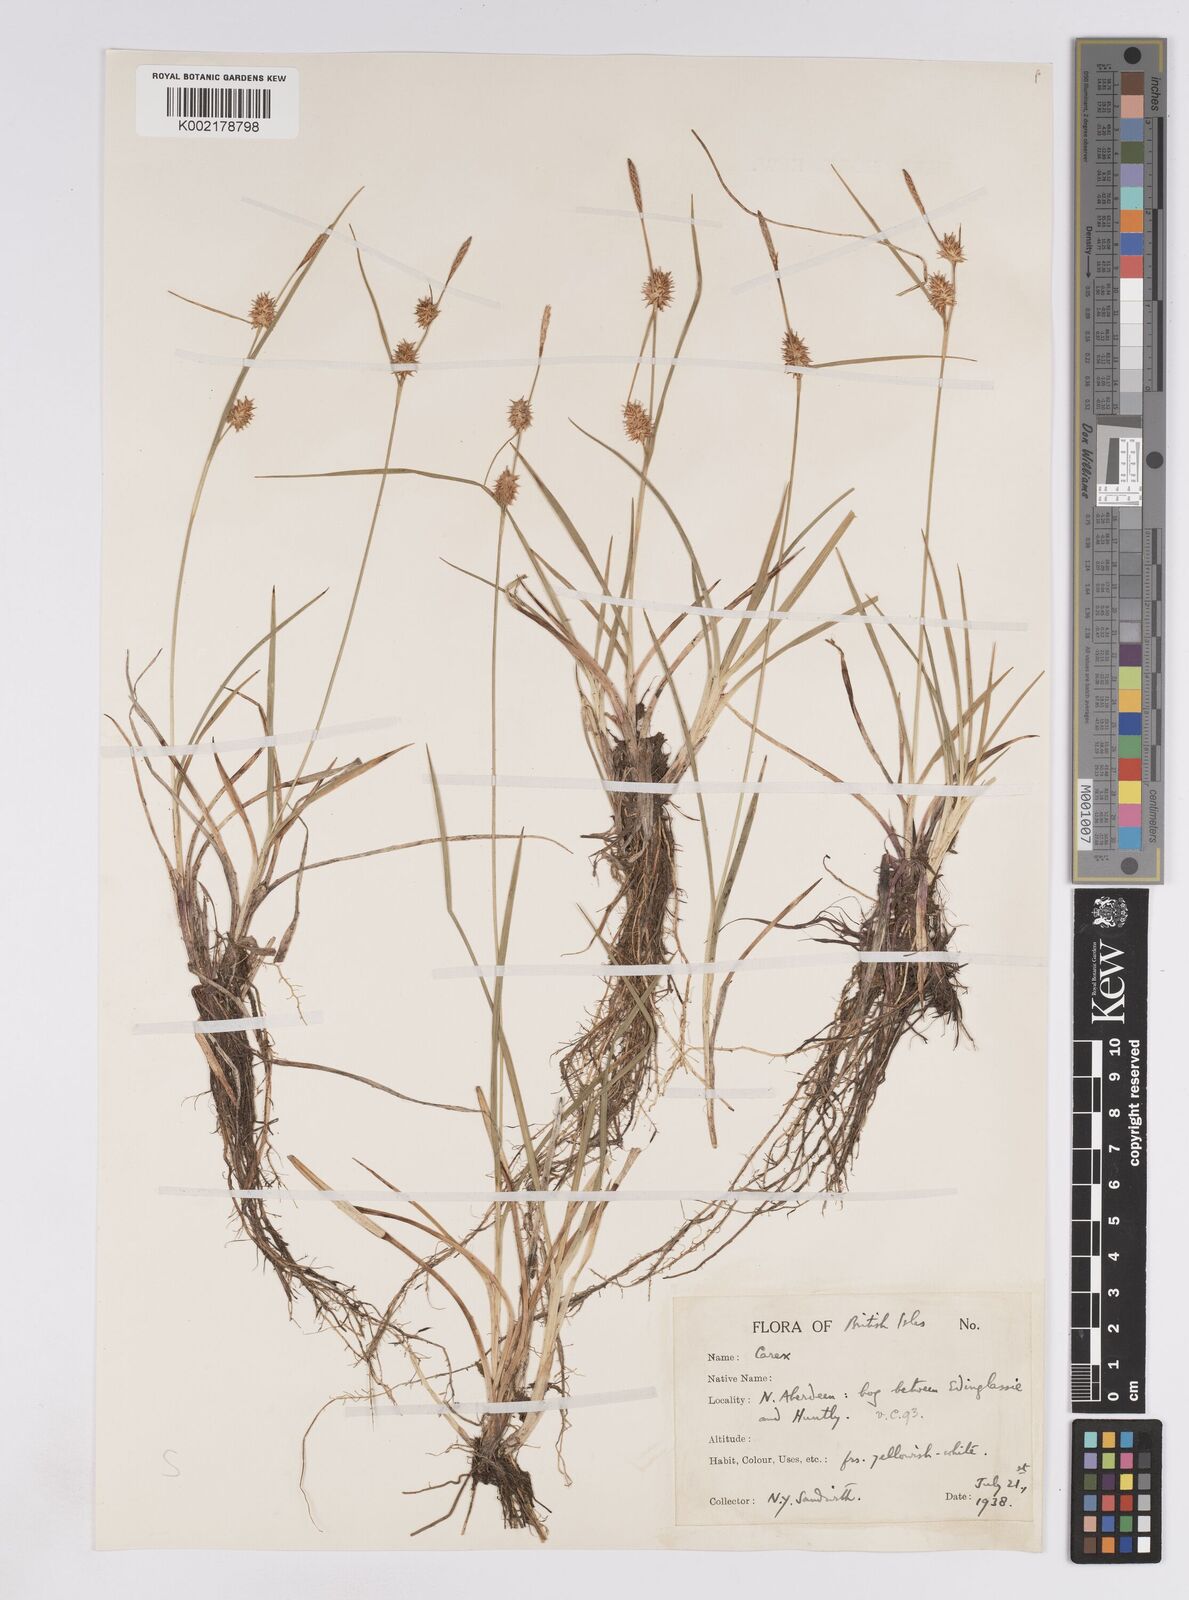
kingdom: Plantae
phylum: Tracheophyta
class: Liliopsida
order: Poales
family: Cyperaceae
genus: Carex
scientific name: Carex lepidocarpa
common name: Long-stalked yellow-sedge
